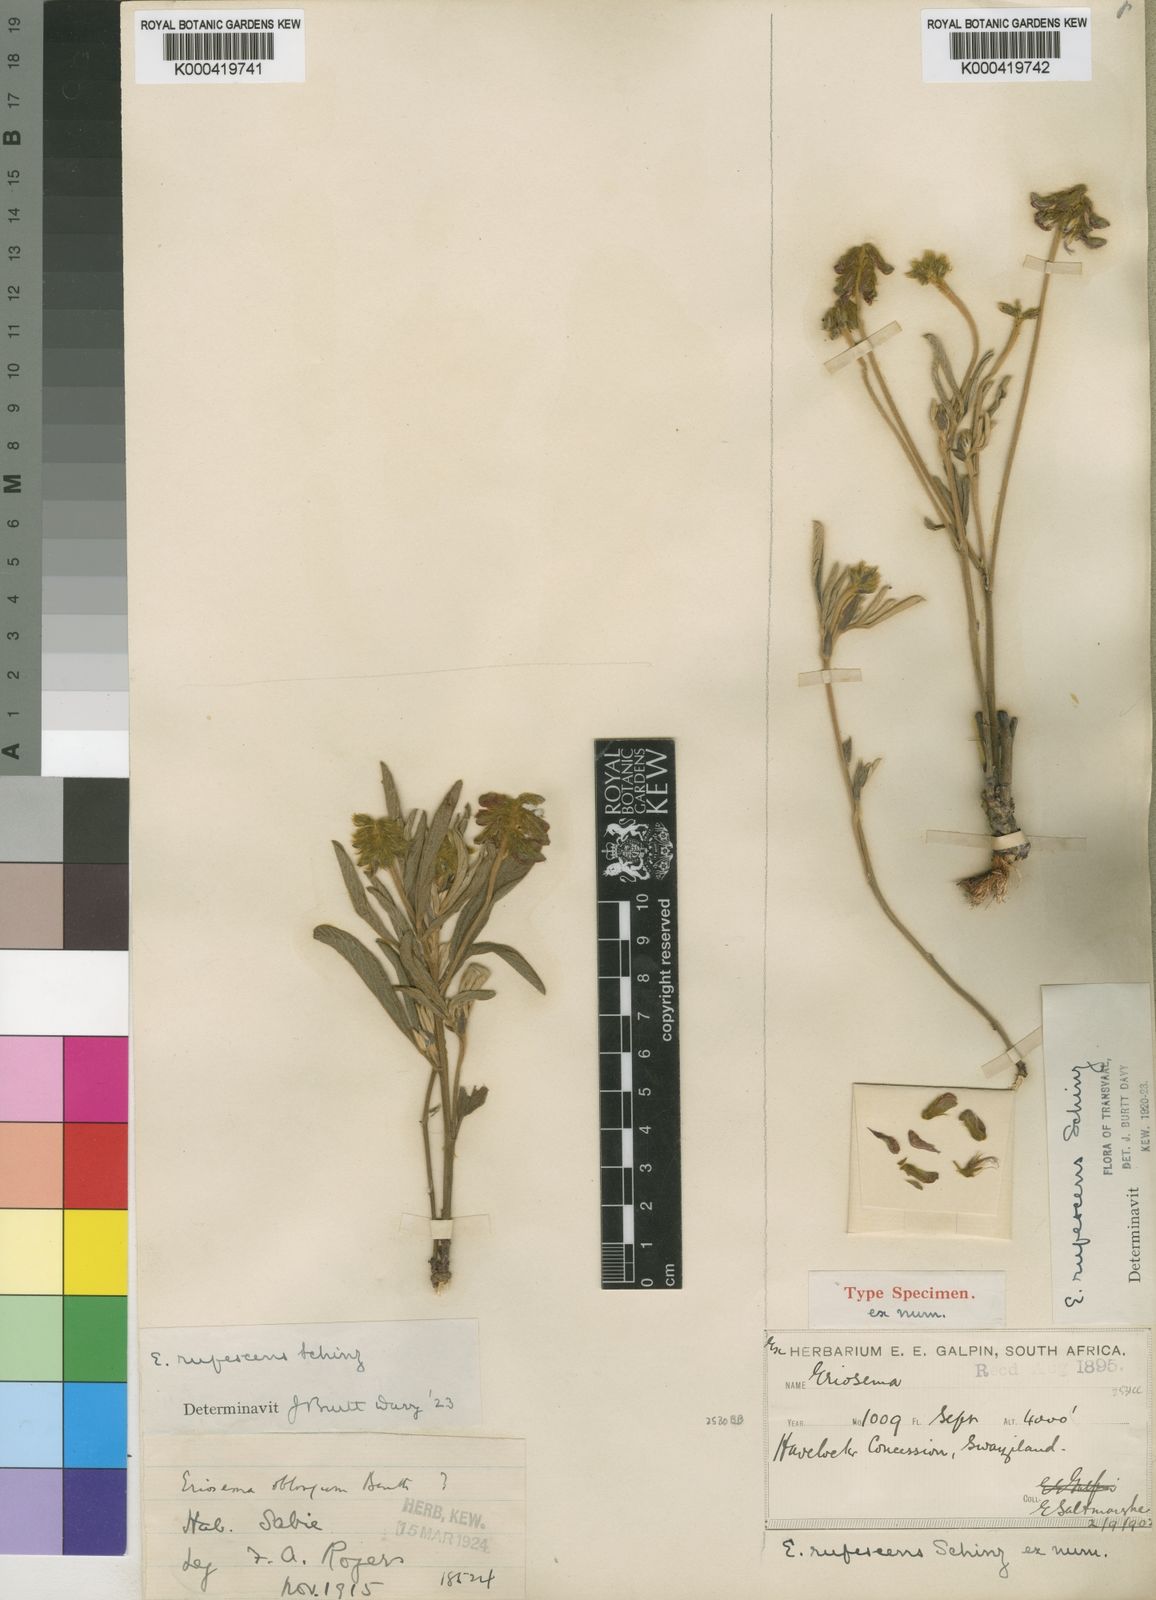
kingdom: Plantae
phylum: Tracheophyta
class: Magnoliopsida
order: Fabales
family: Fabaceae
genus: Eriosema
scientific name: Eriosema
